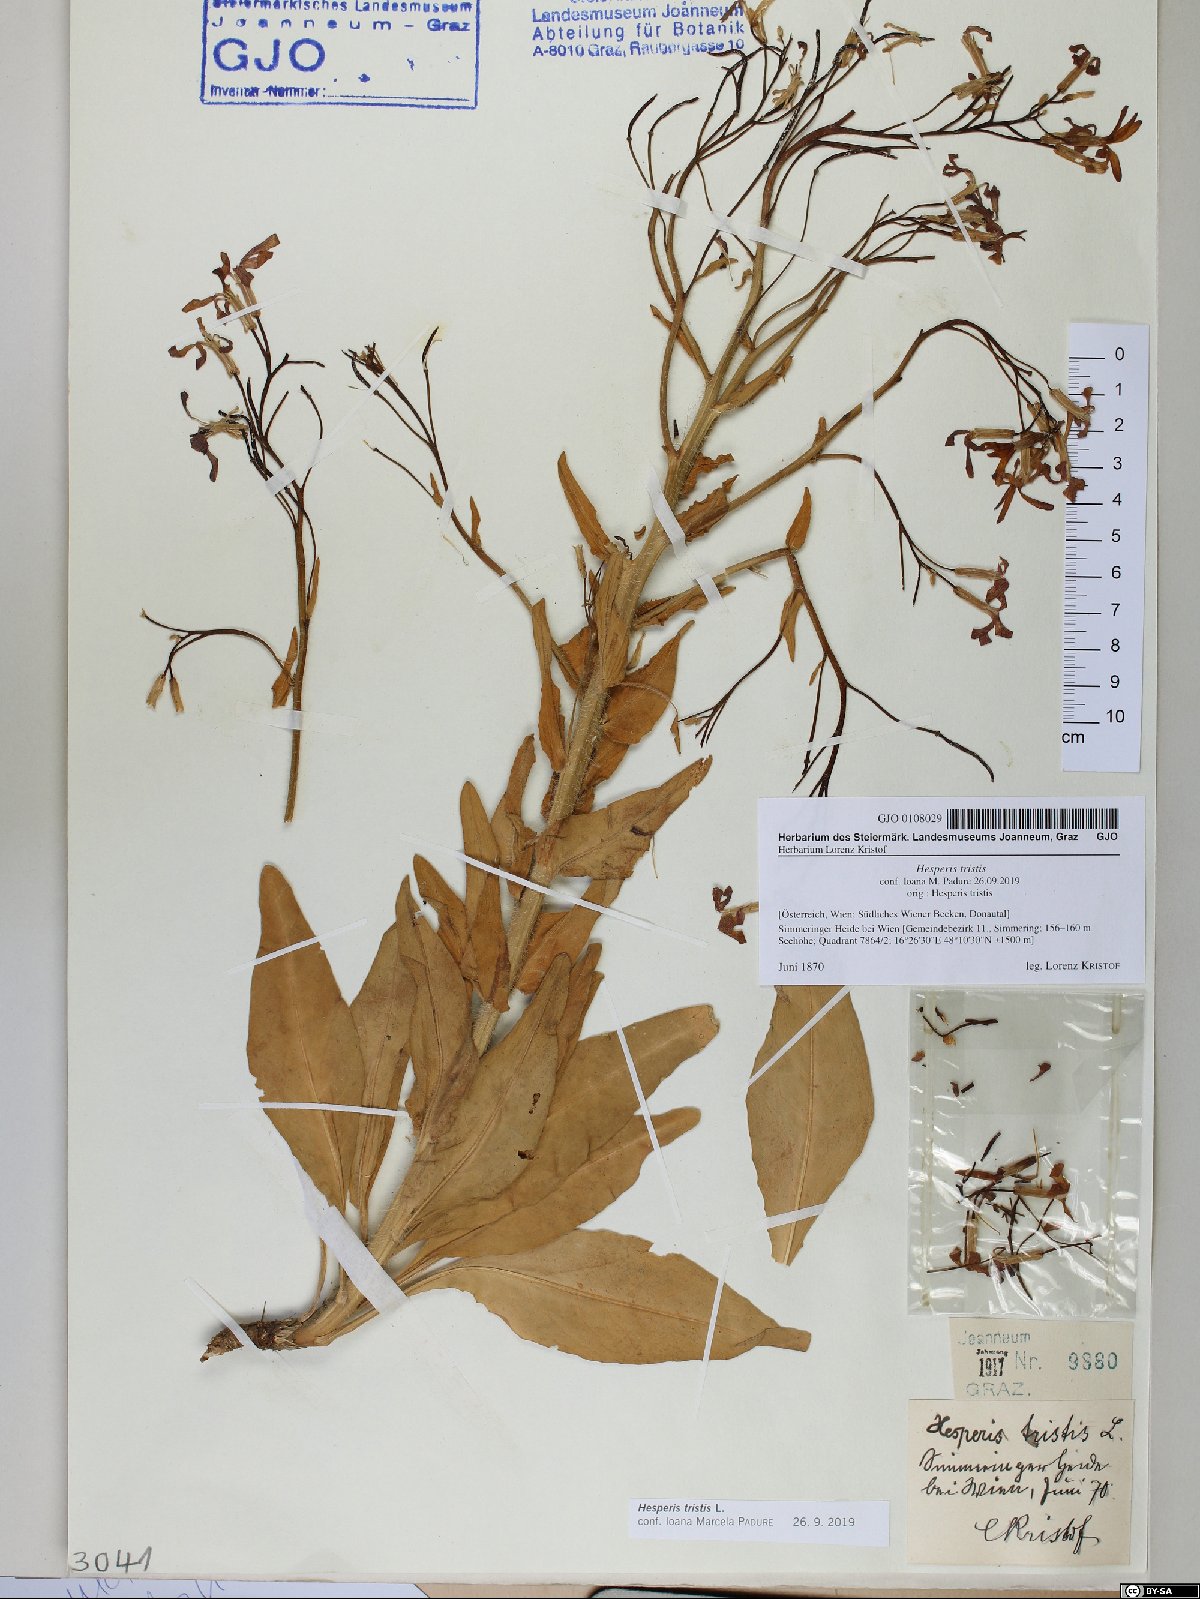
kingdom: Plantae
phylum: Tracheophyta
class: Magnoliopsida
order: Brassicales
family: Brassicaceae
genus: Hesperis
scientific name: Hesperis tristis
